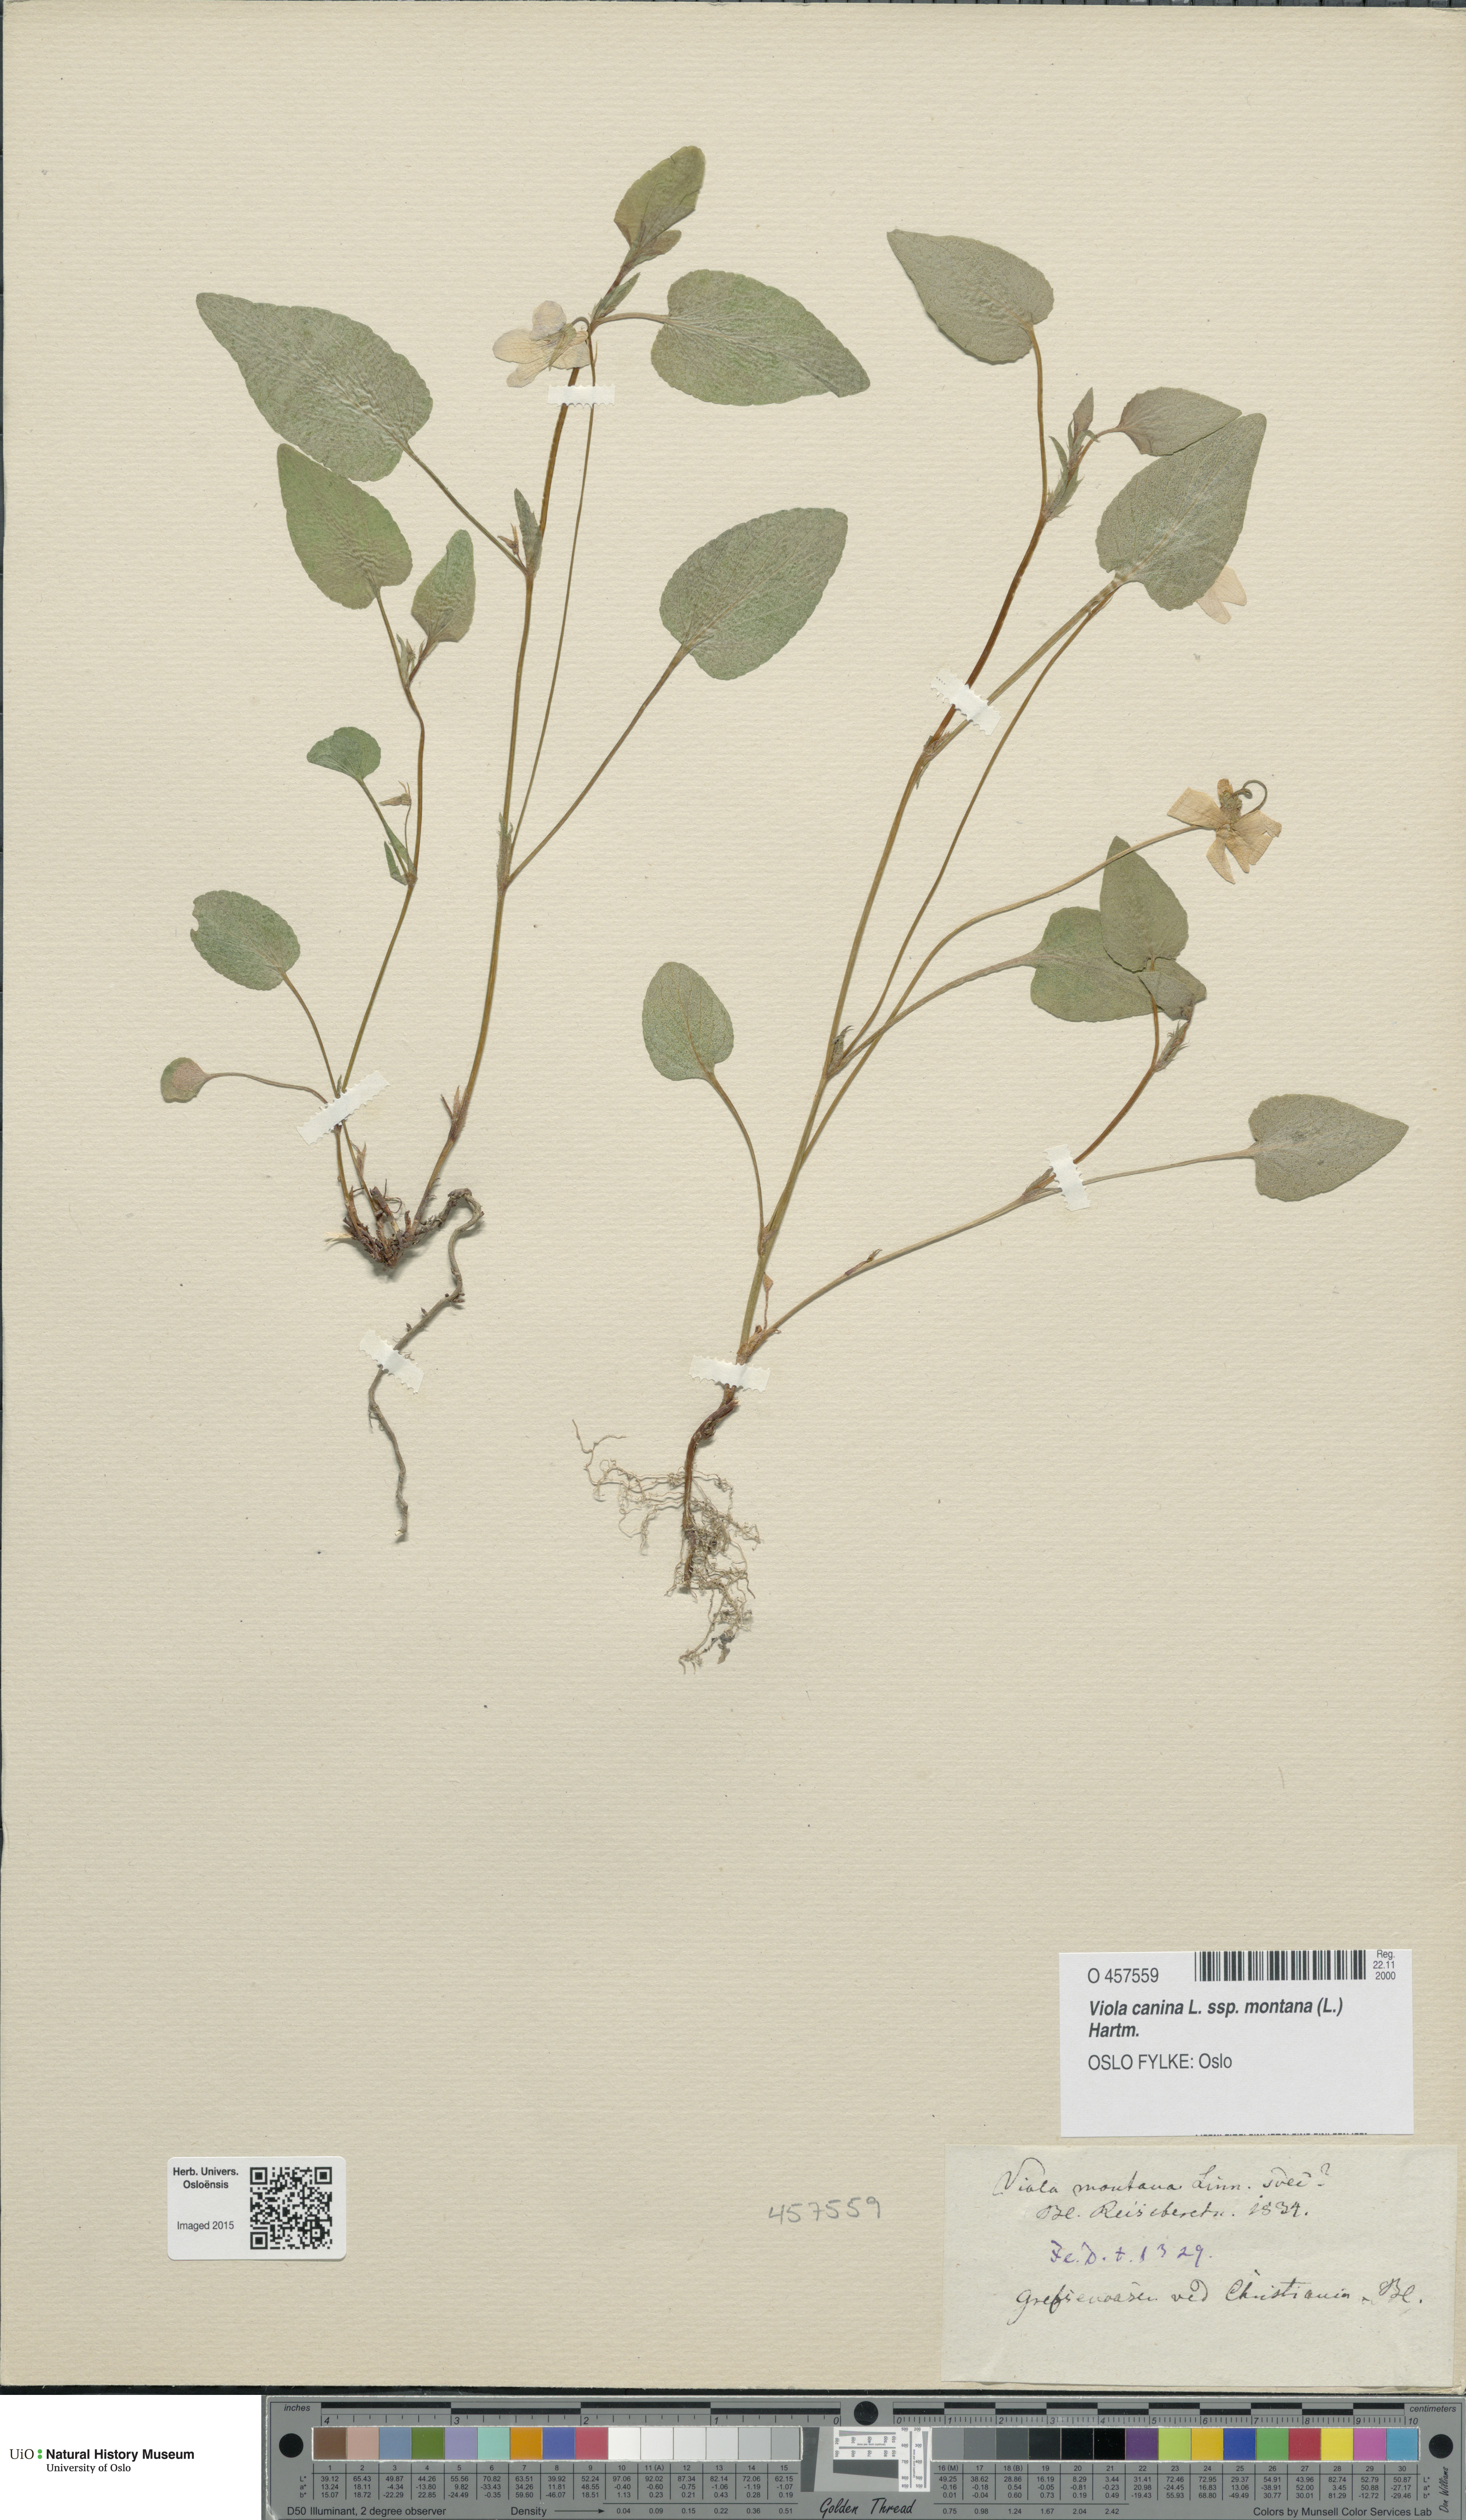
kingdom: Plantae
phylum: Tracheophyta
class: Magnoliopsida
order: Malpighiales
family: Violaceae
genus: Viola
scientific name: Viola ruppii
